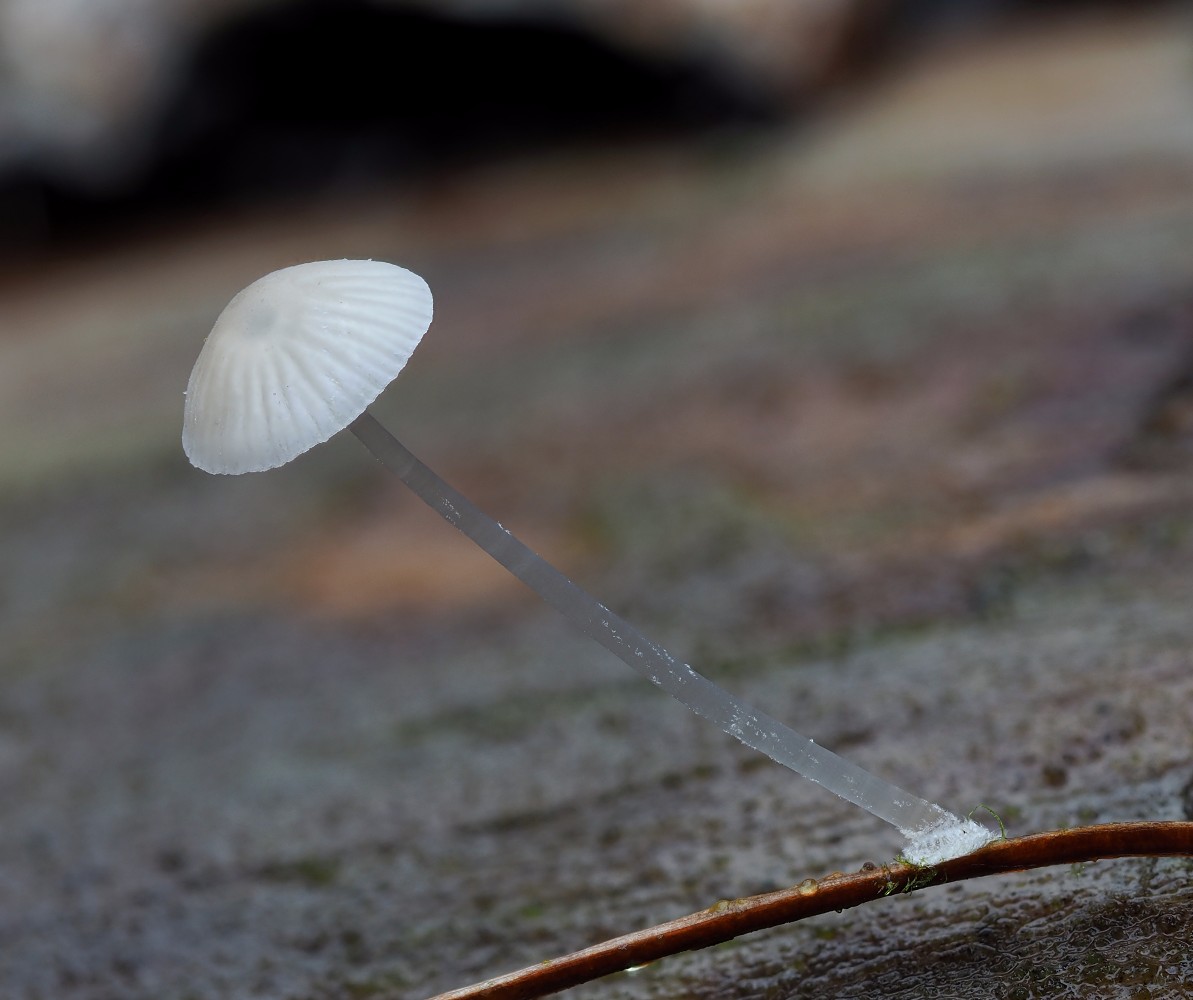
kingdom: Fungi
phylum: Basidiomycota
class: Agaricomycetes
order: Agaricales
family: Mycenaceae
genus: Mycena
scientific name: Mycena stylobates
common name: fureskivet huesvamp
